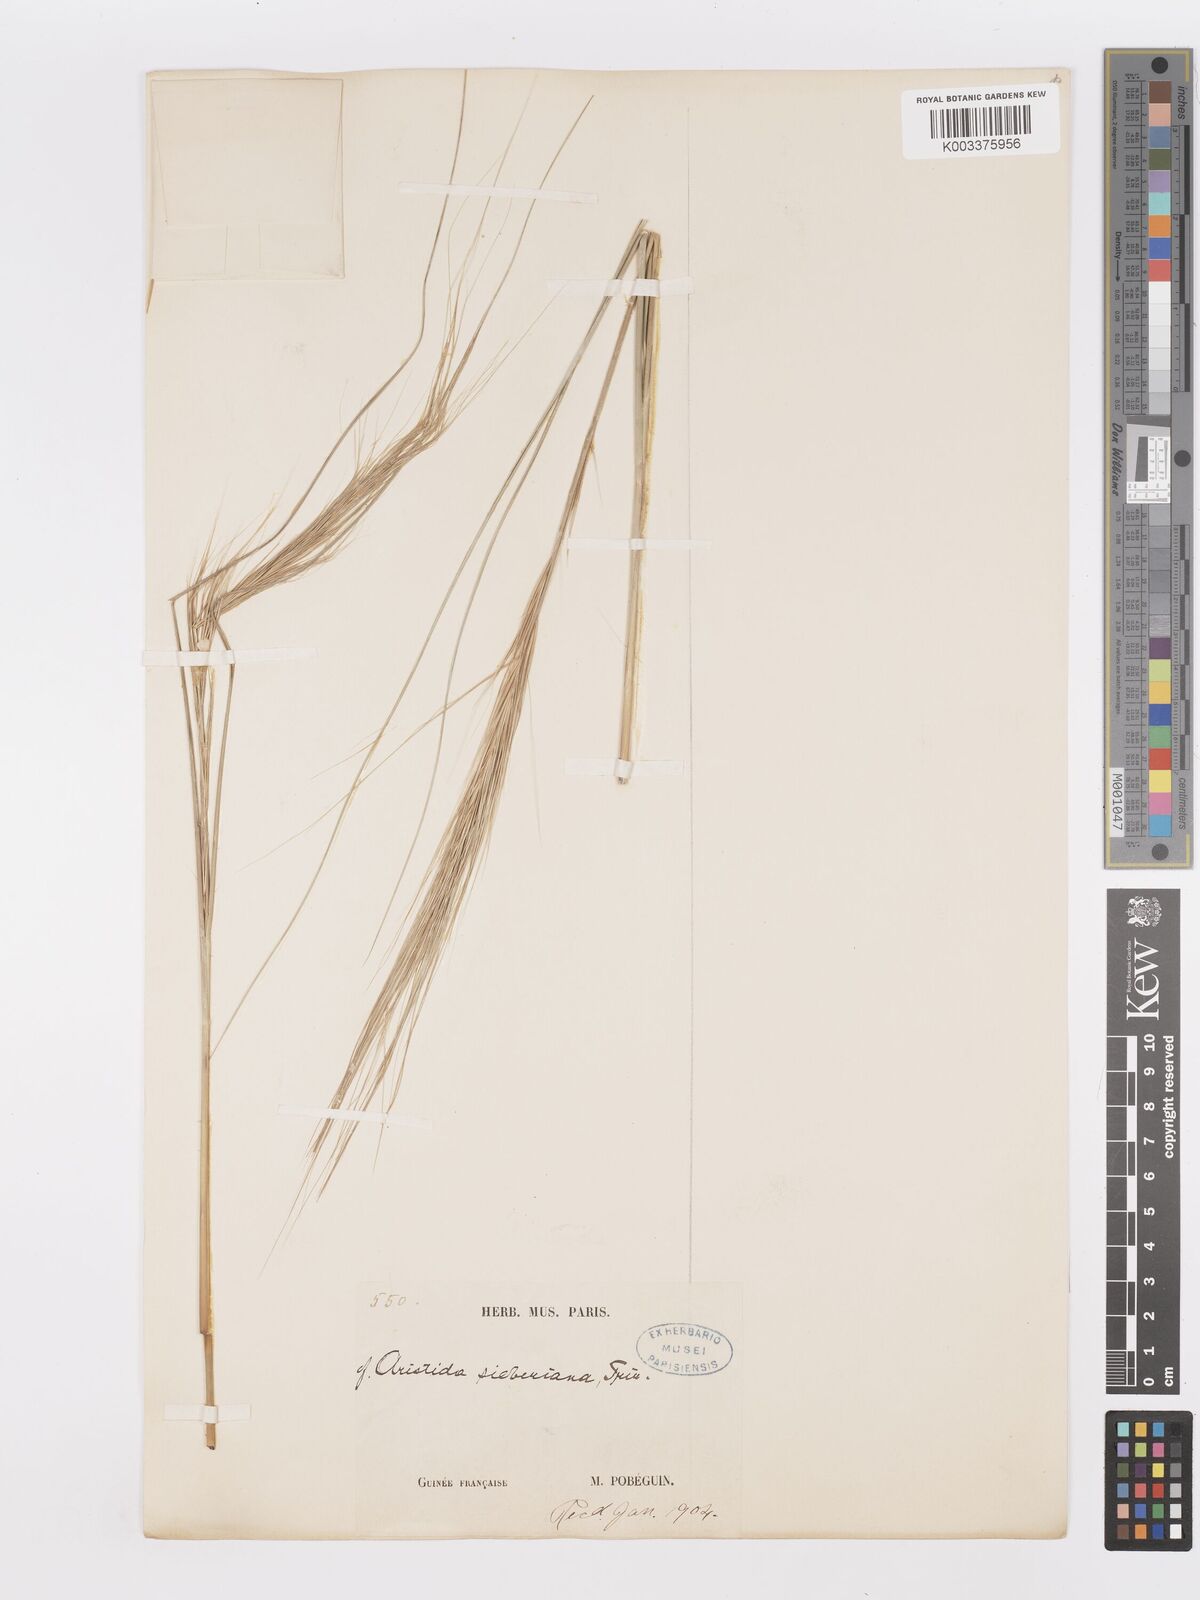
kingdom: Plantae
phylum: Tracheophyta
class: Liliopsida
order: Poales
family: Poaceae
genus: Aristida
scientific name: Aristida sieberiana
